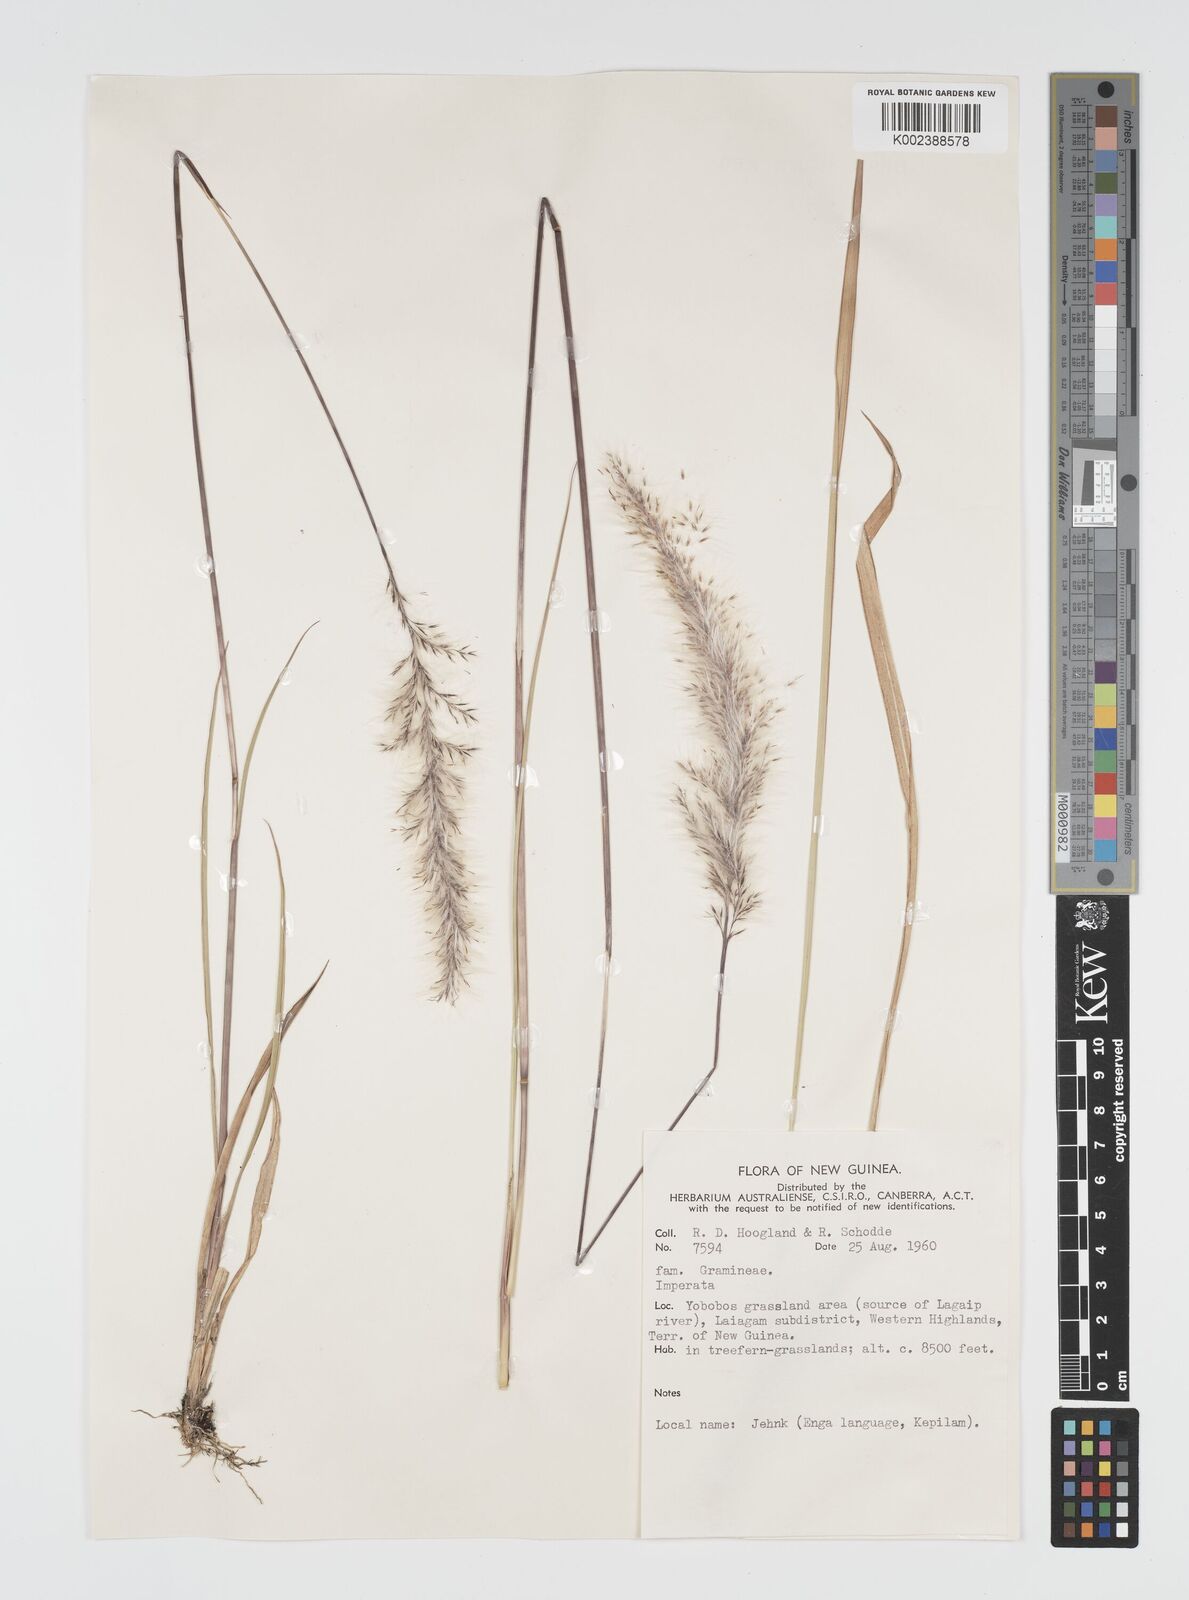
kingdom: Plantae
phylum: Tracheophyta
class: Liliopsida
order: Poales
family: Poaceae
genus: Imperata
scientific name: Imperata cylindrica
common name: Cogongrass
